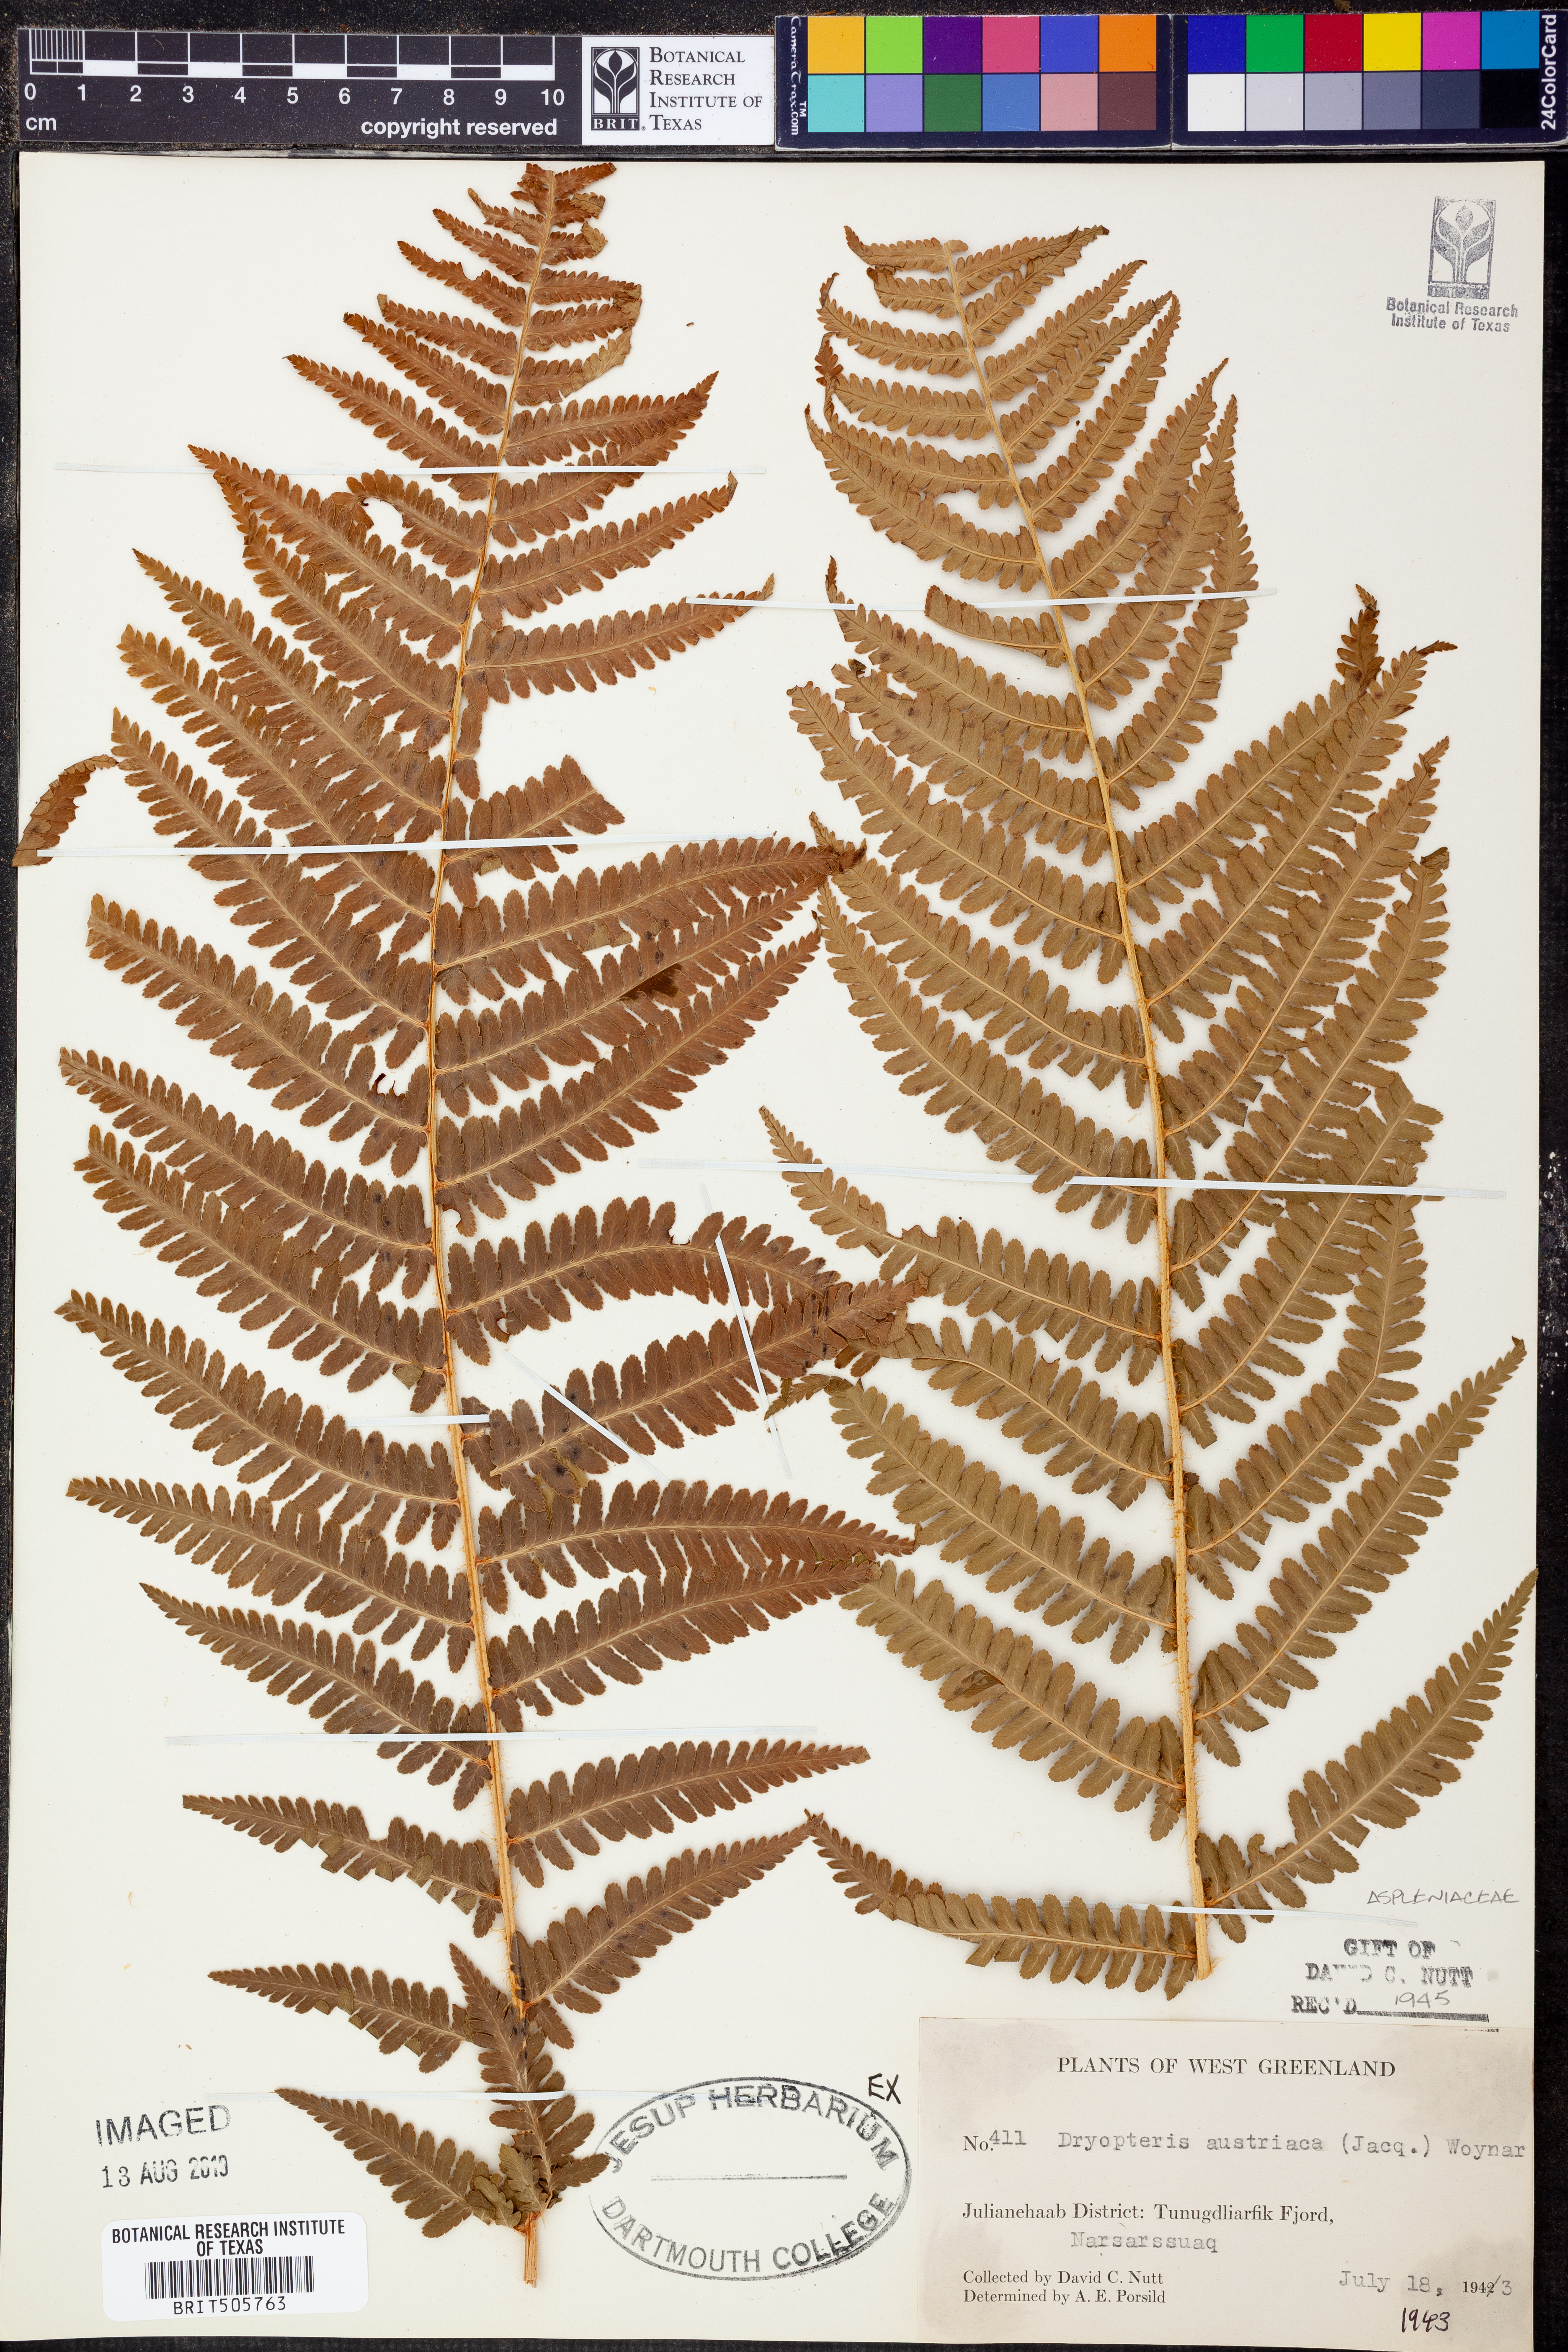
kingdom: Plantae
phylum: Tracheophyta
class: Polypodiopsida
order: Polypodiales
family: Dryopteridaceae
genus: Dryopteris
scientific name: Dryopteris dilatata
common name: Broad buckler-fern
